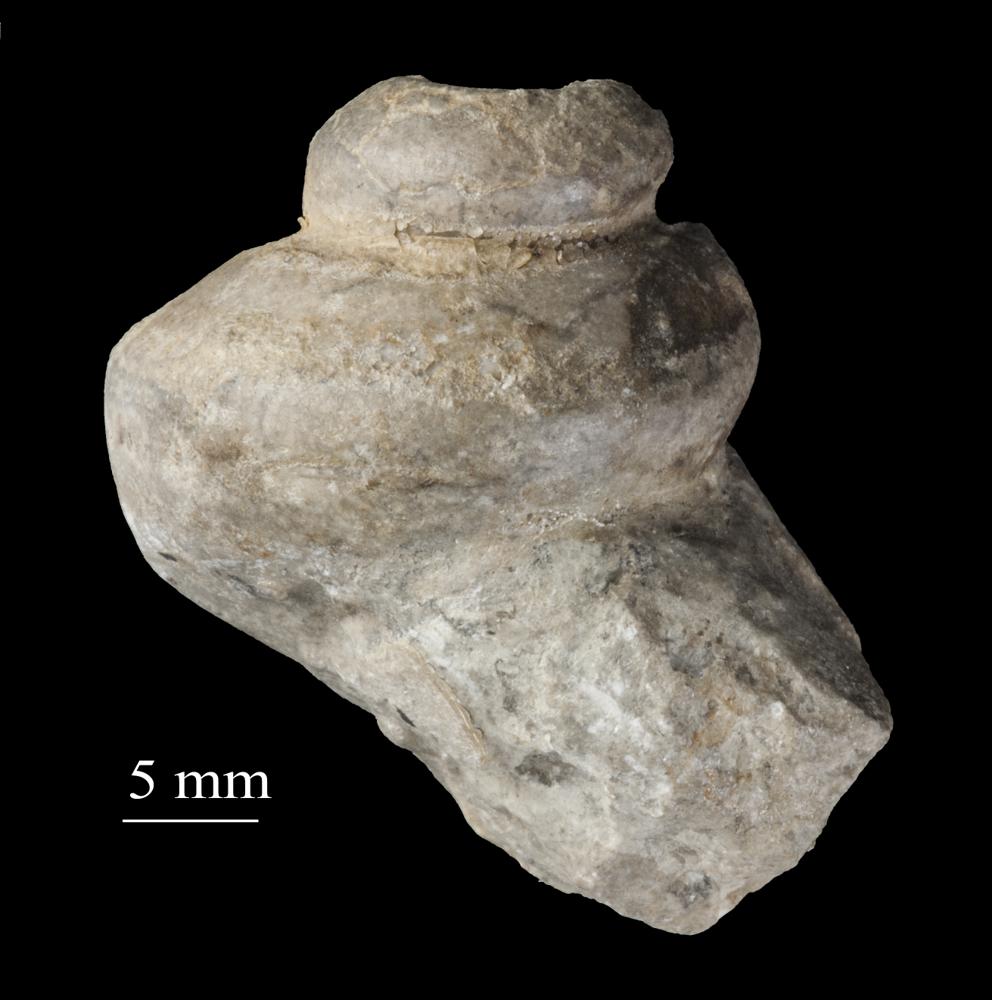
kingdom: Animalia
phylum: Mollusca
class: Gastropoda
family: Lophospiridae
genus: Loxoplocus
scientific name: Loxoplocus Turbo silurica
